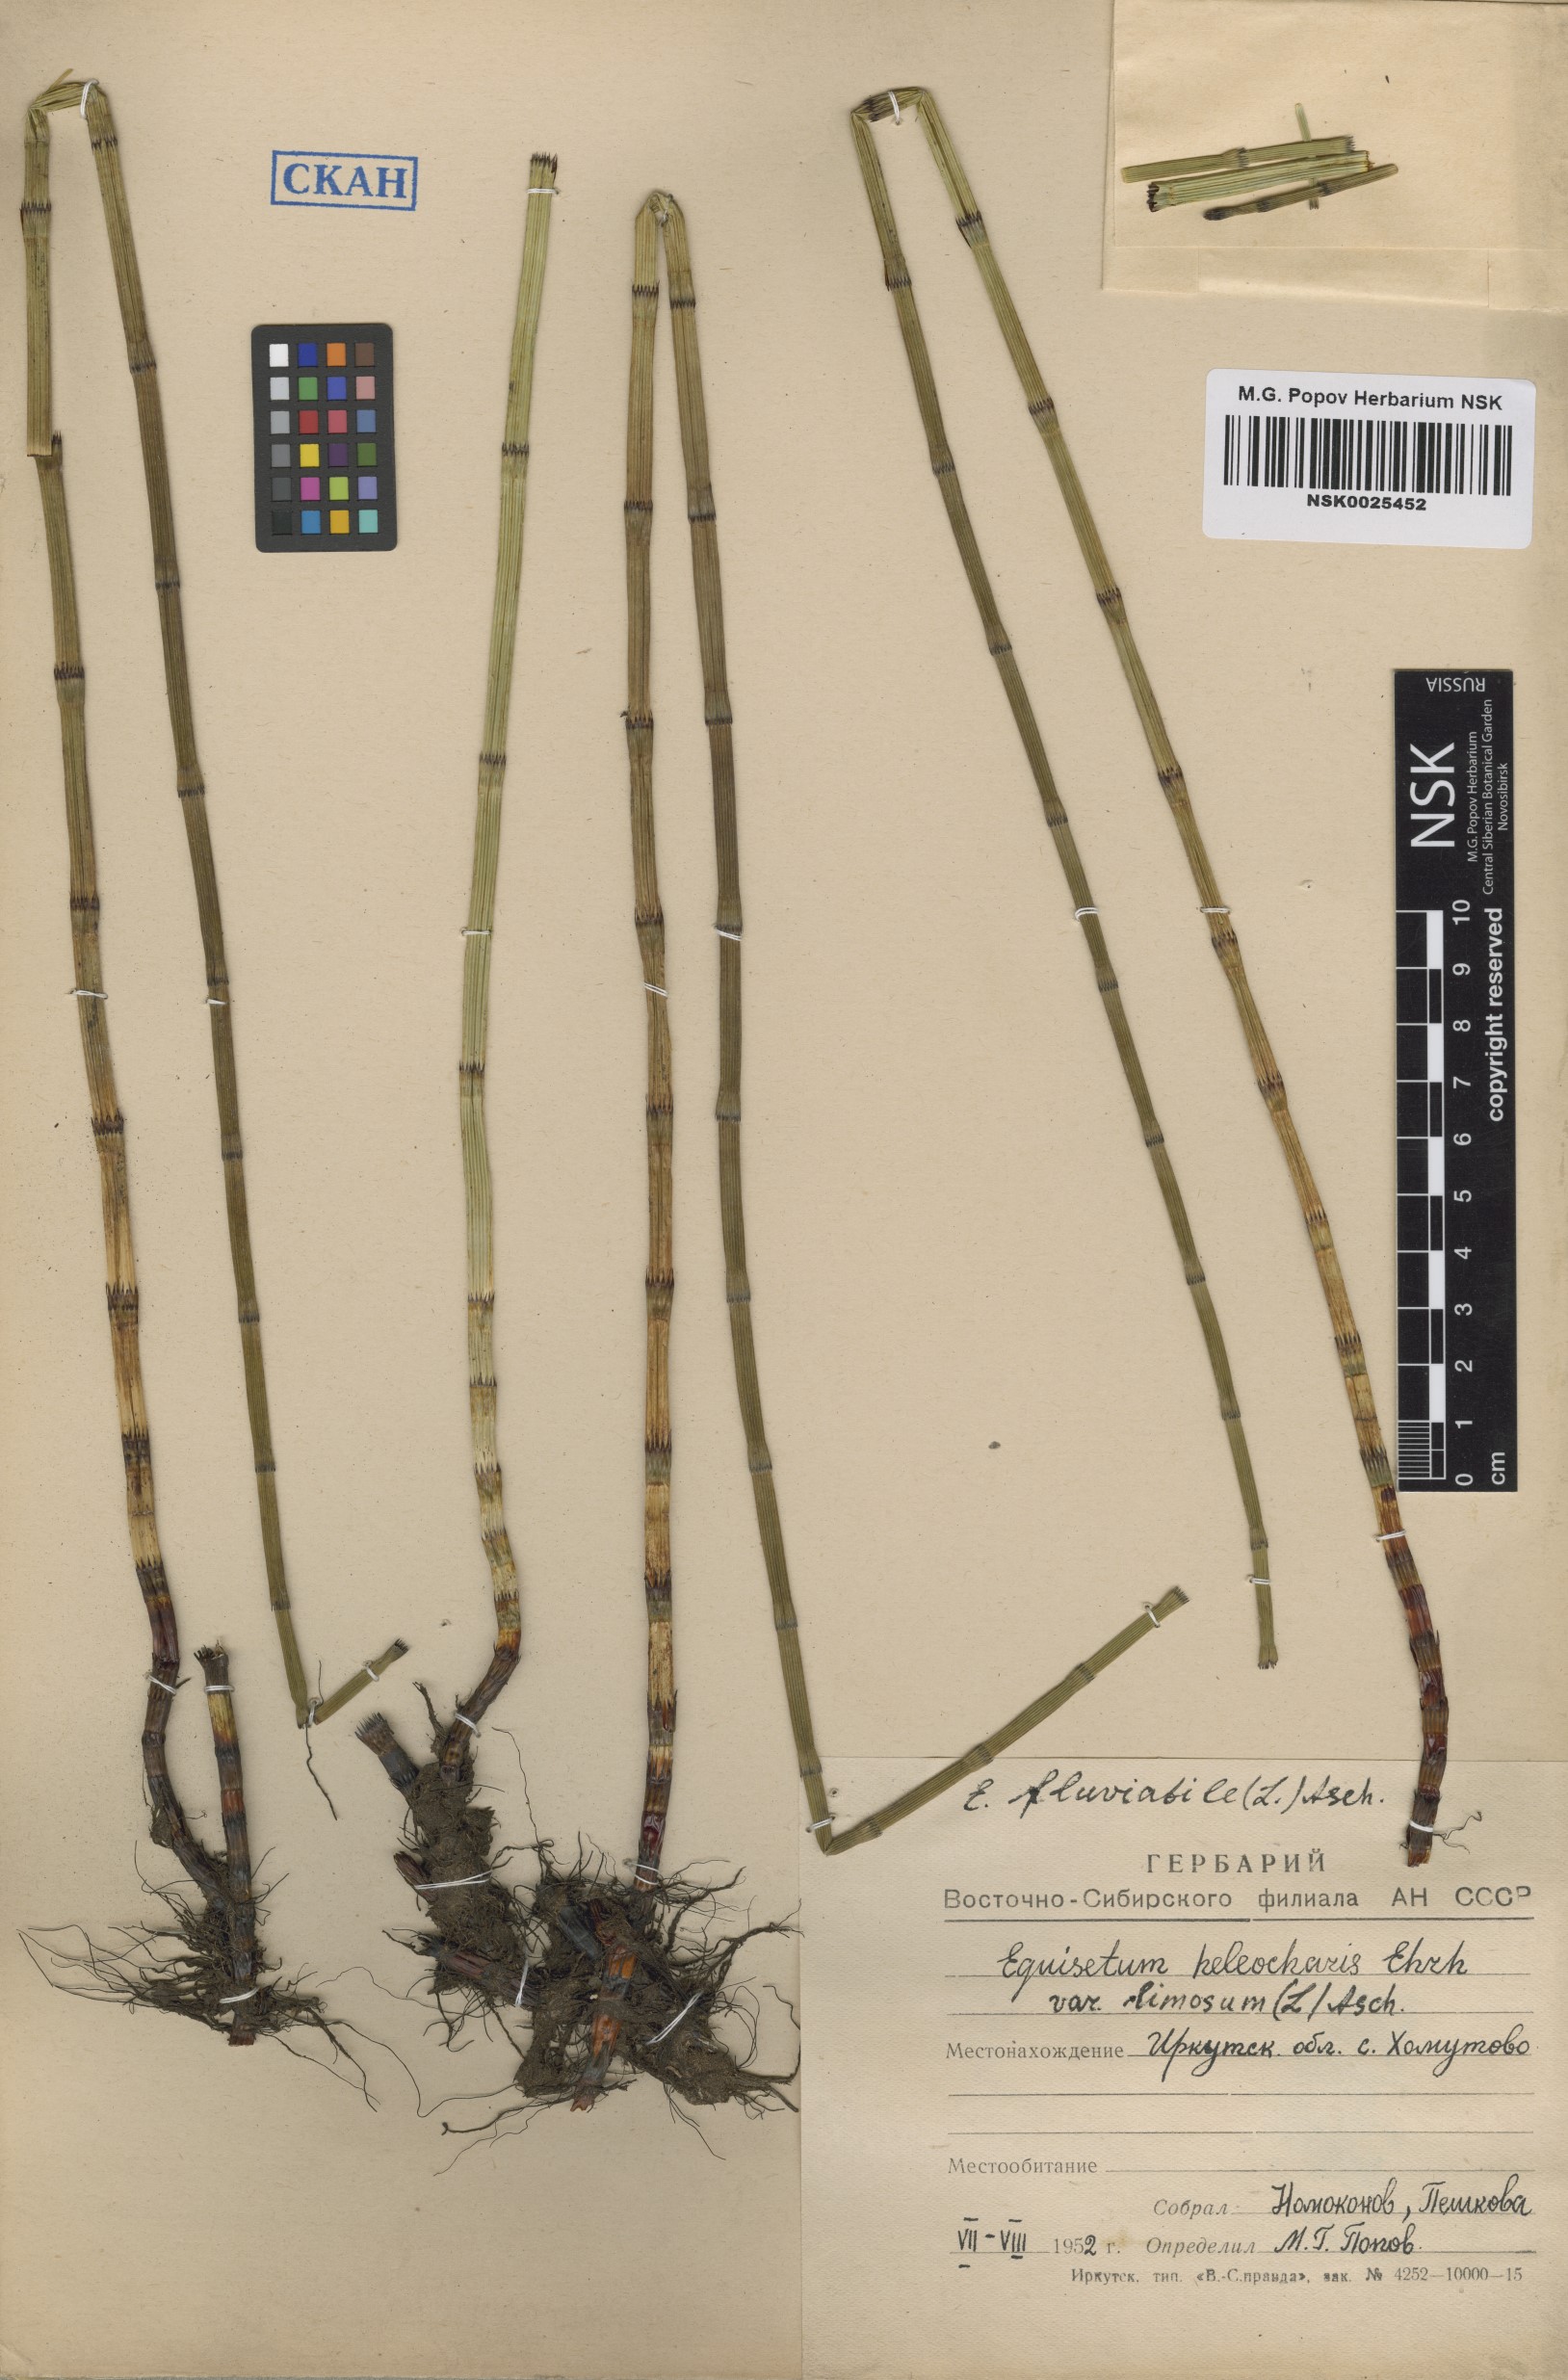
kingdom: Plantae
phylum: Tracheophyta
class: Polypodiopsida
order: Equisetales
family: Equisetaceae
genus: Equisetum
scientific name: Equisetum fluviatile
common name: Water horsetail
